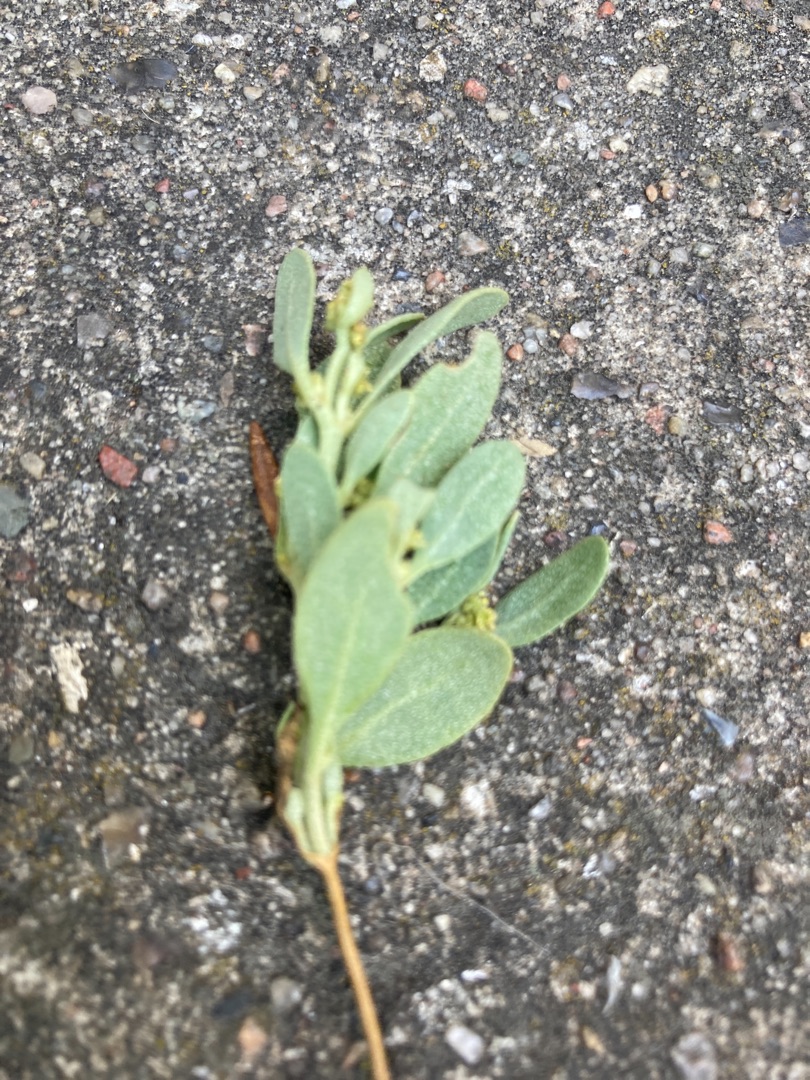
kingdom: Plantae
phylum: Tracheophyta
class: Magnoliopsida
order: Caryophyllales
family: Amaranthaceae
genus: Halimione
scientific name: Halimione portulacoides
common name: Stilkløs kilebæger
